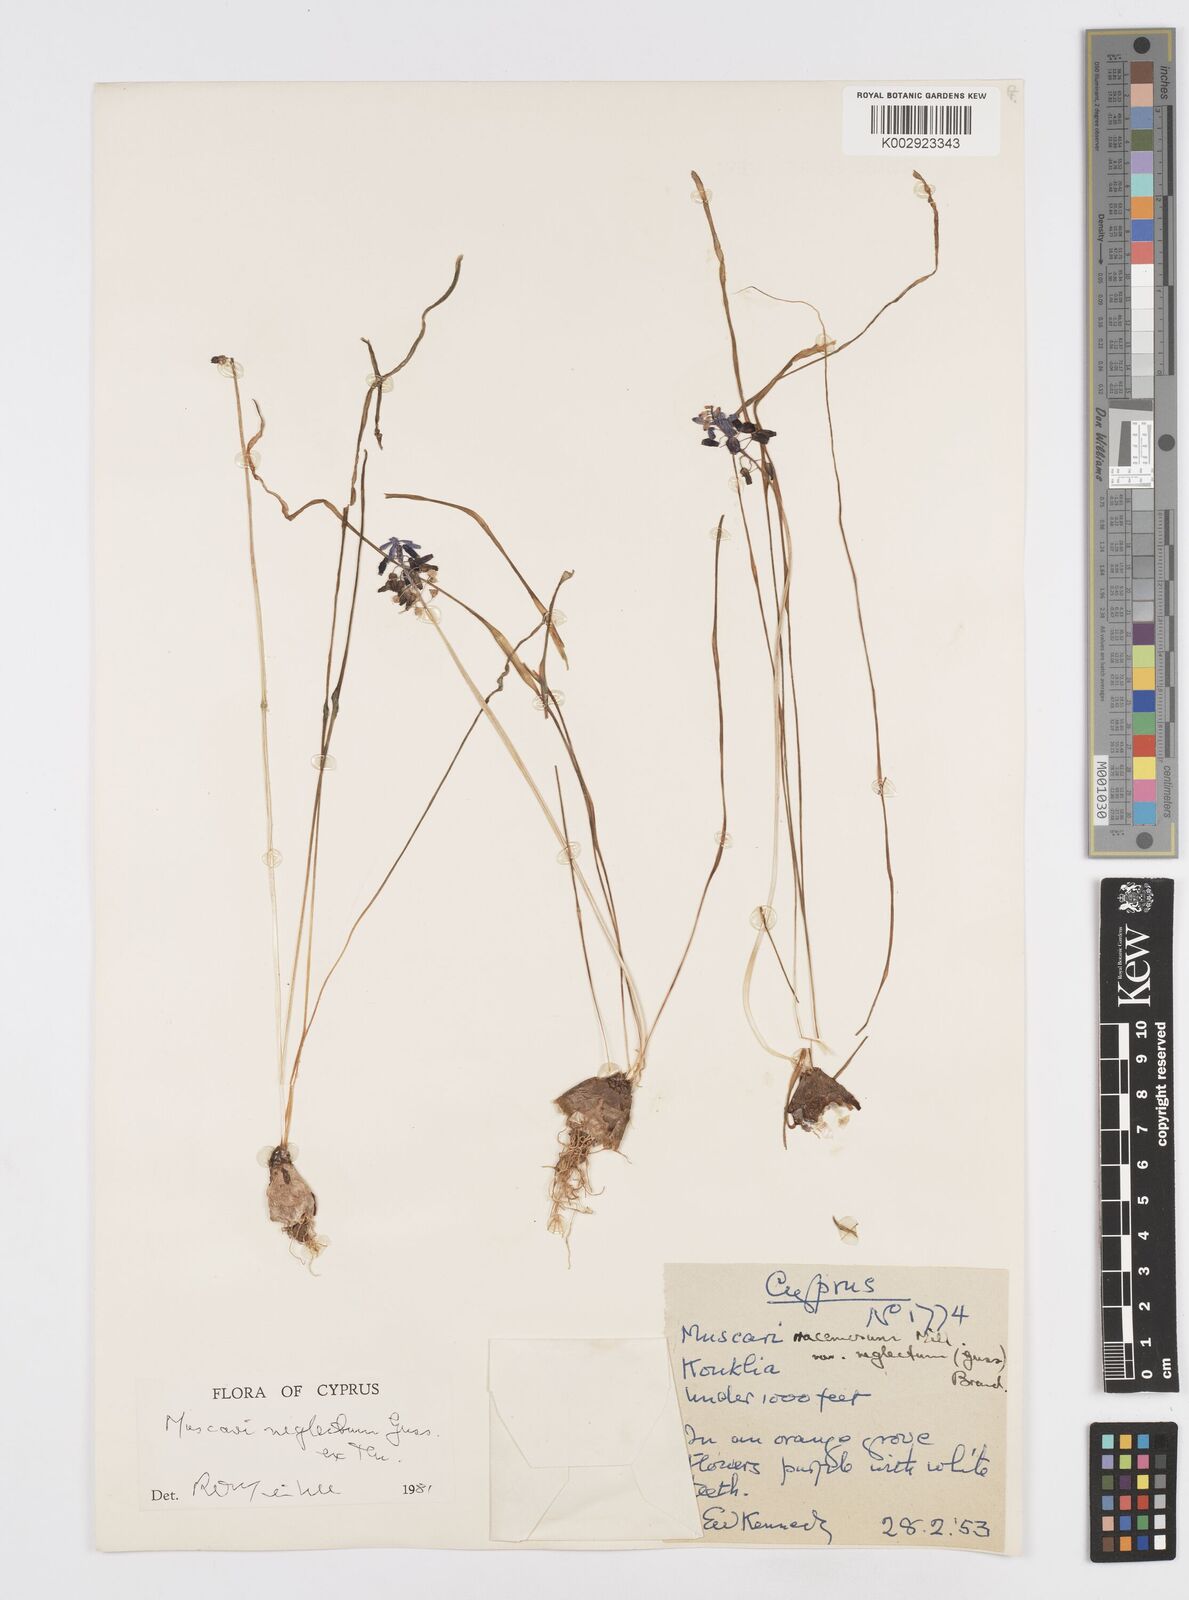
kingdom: Plantae
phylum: Tracheophyta
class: Liliopsida
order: Asparagales
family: Asparagaceae
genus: Muscari
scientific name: Muscari neglectum
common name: Grape-hyacinth
